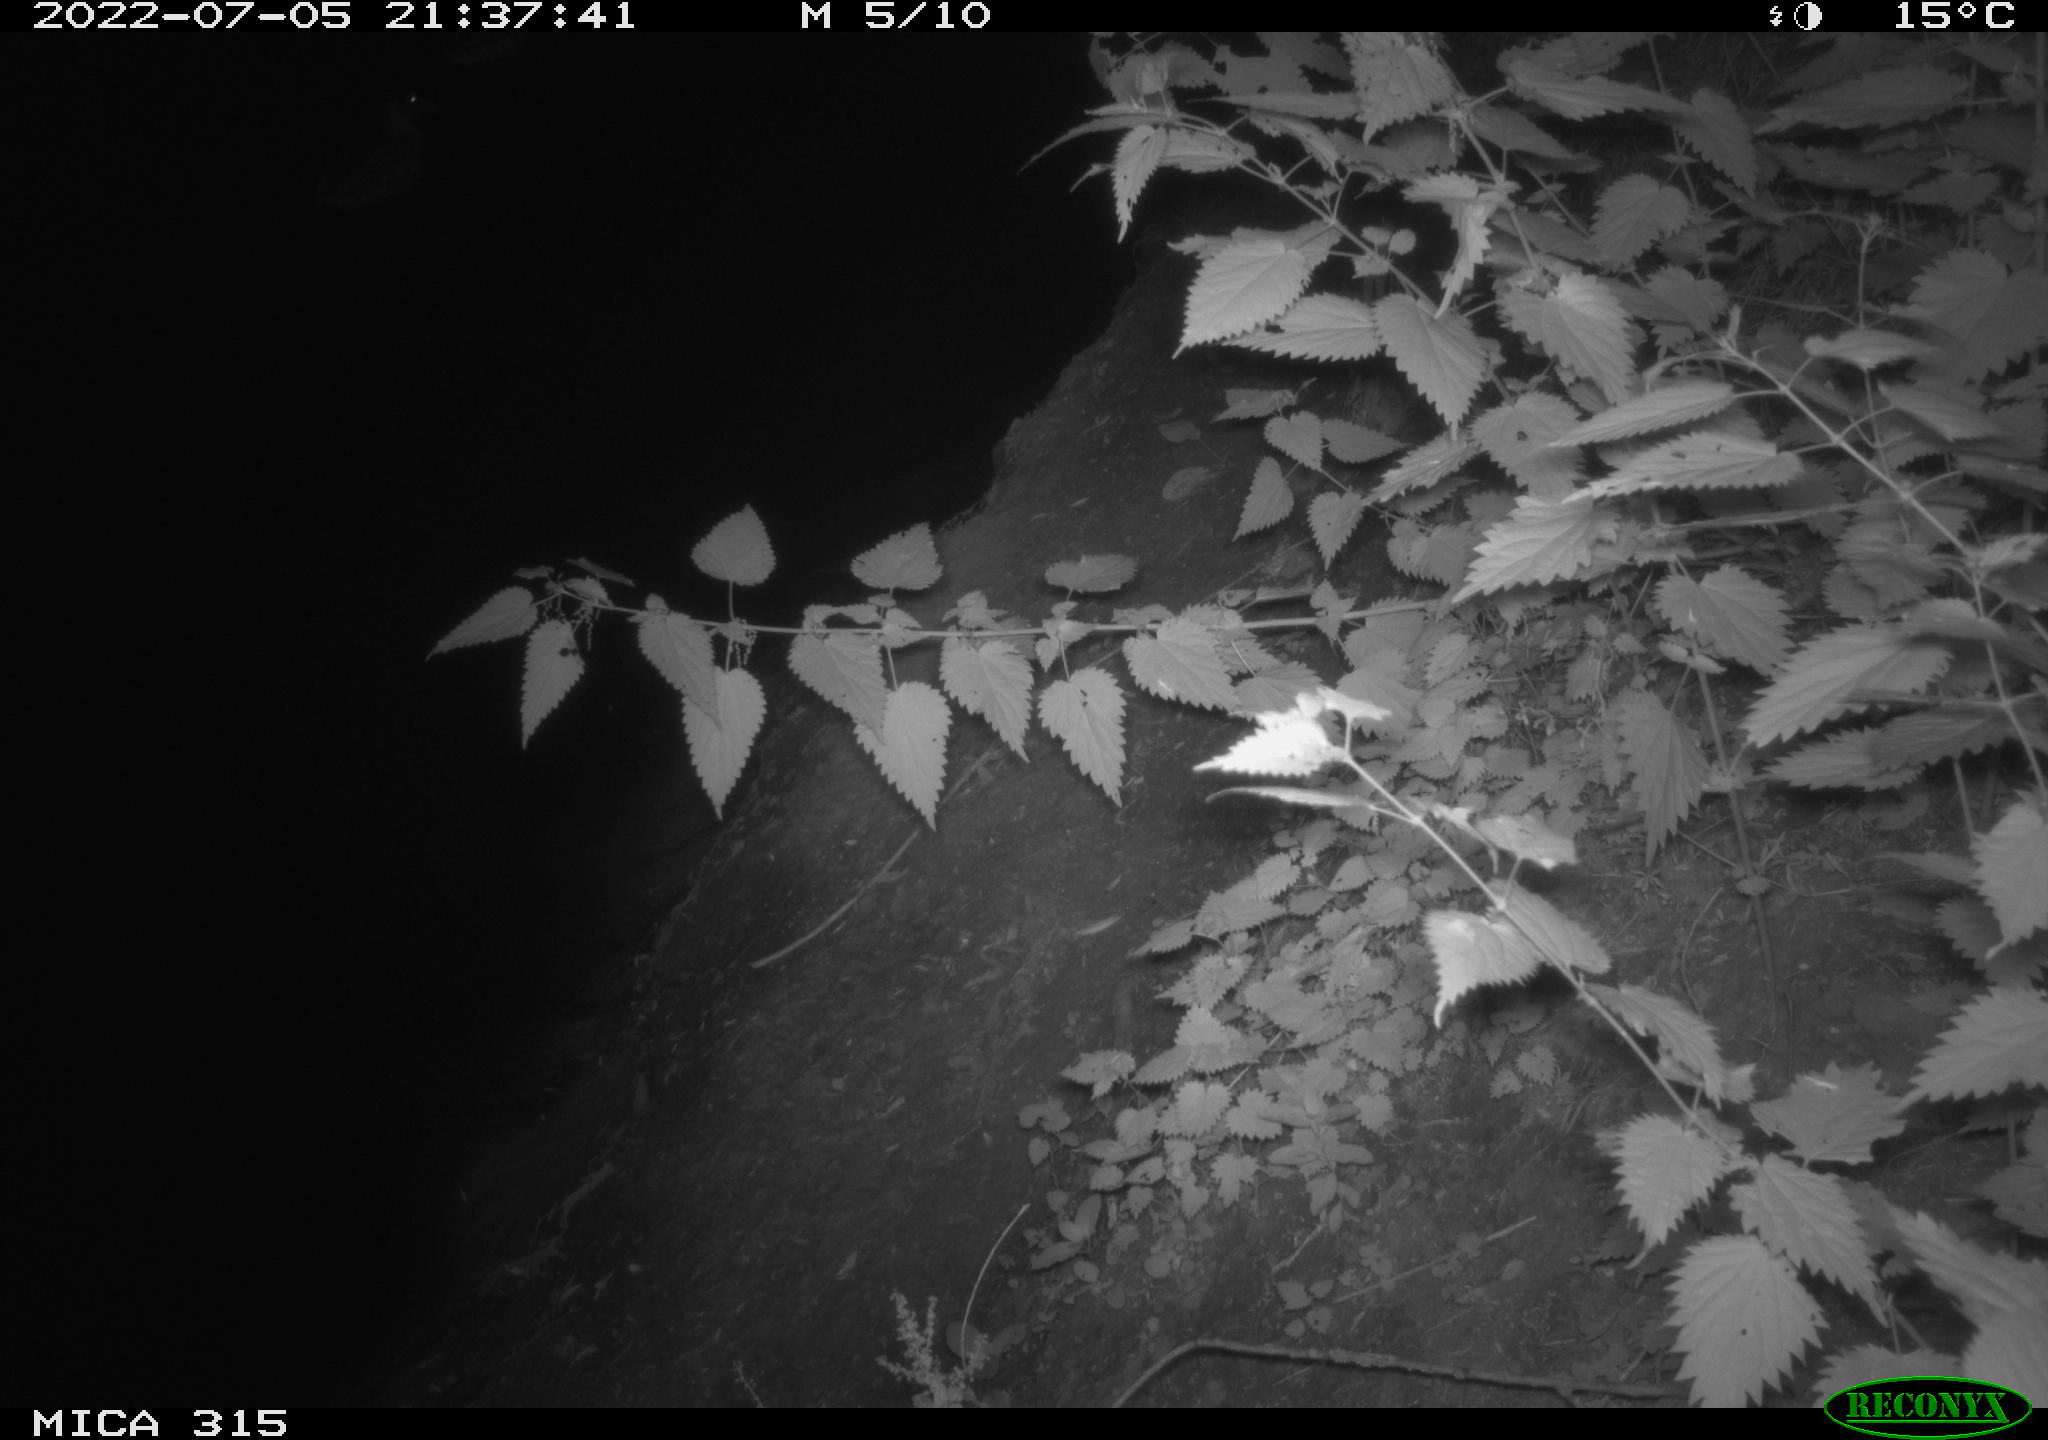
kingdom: Animalia
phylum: Chordata
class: Aves
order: Anseriformes
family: Anatidae
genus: Anas
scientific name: Anas platyrhynchos
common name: Mallard
